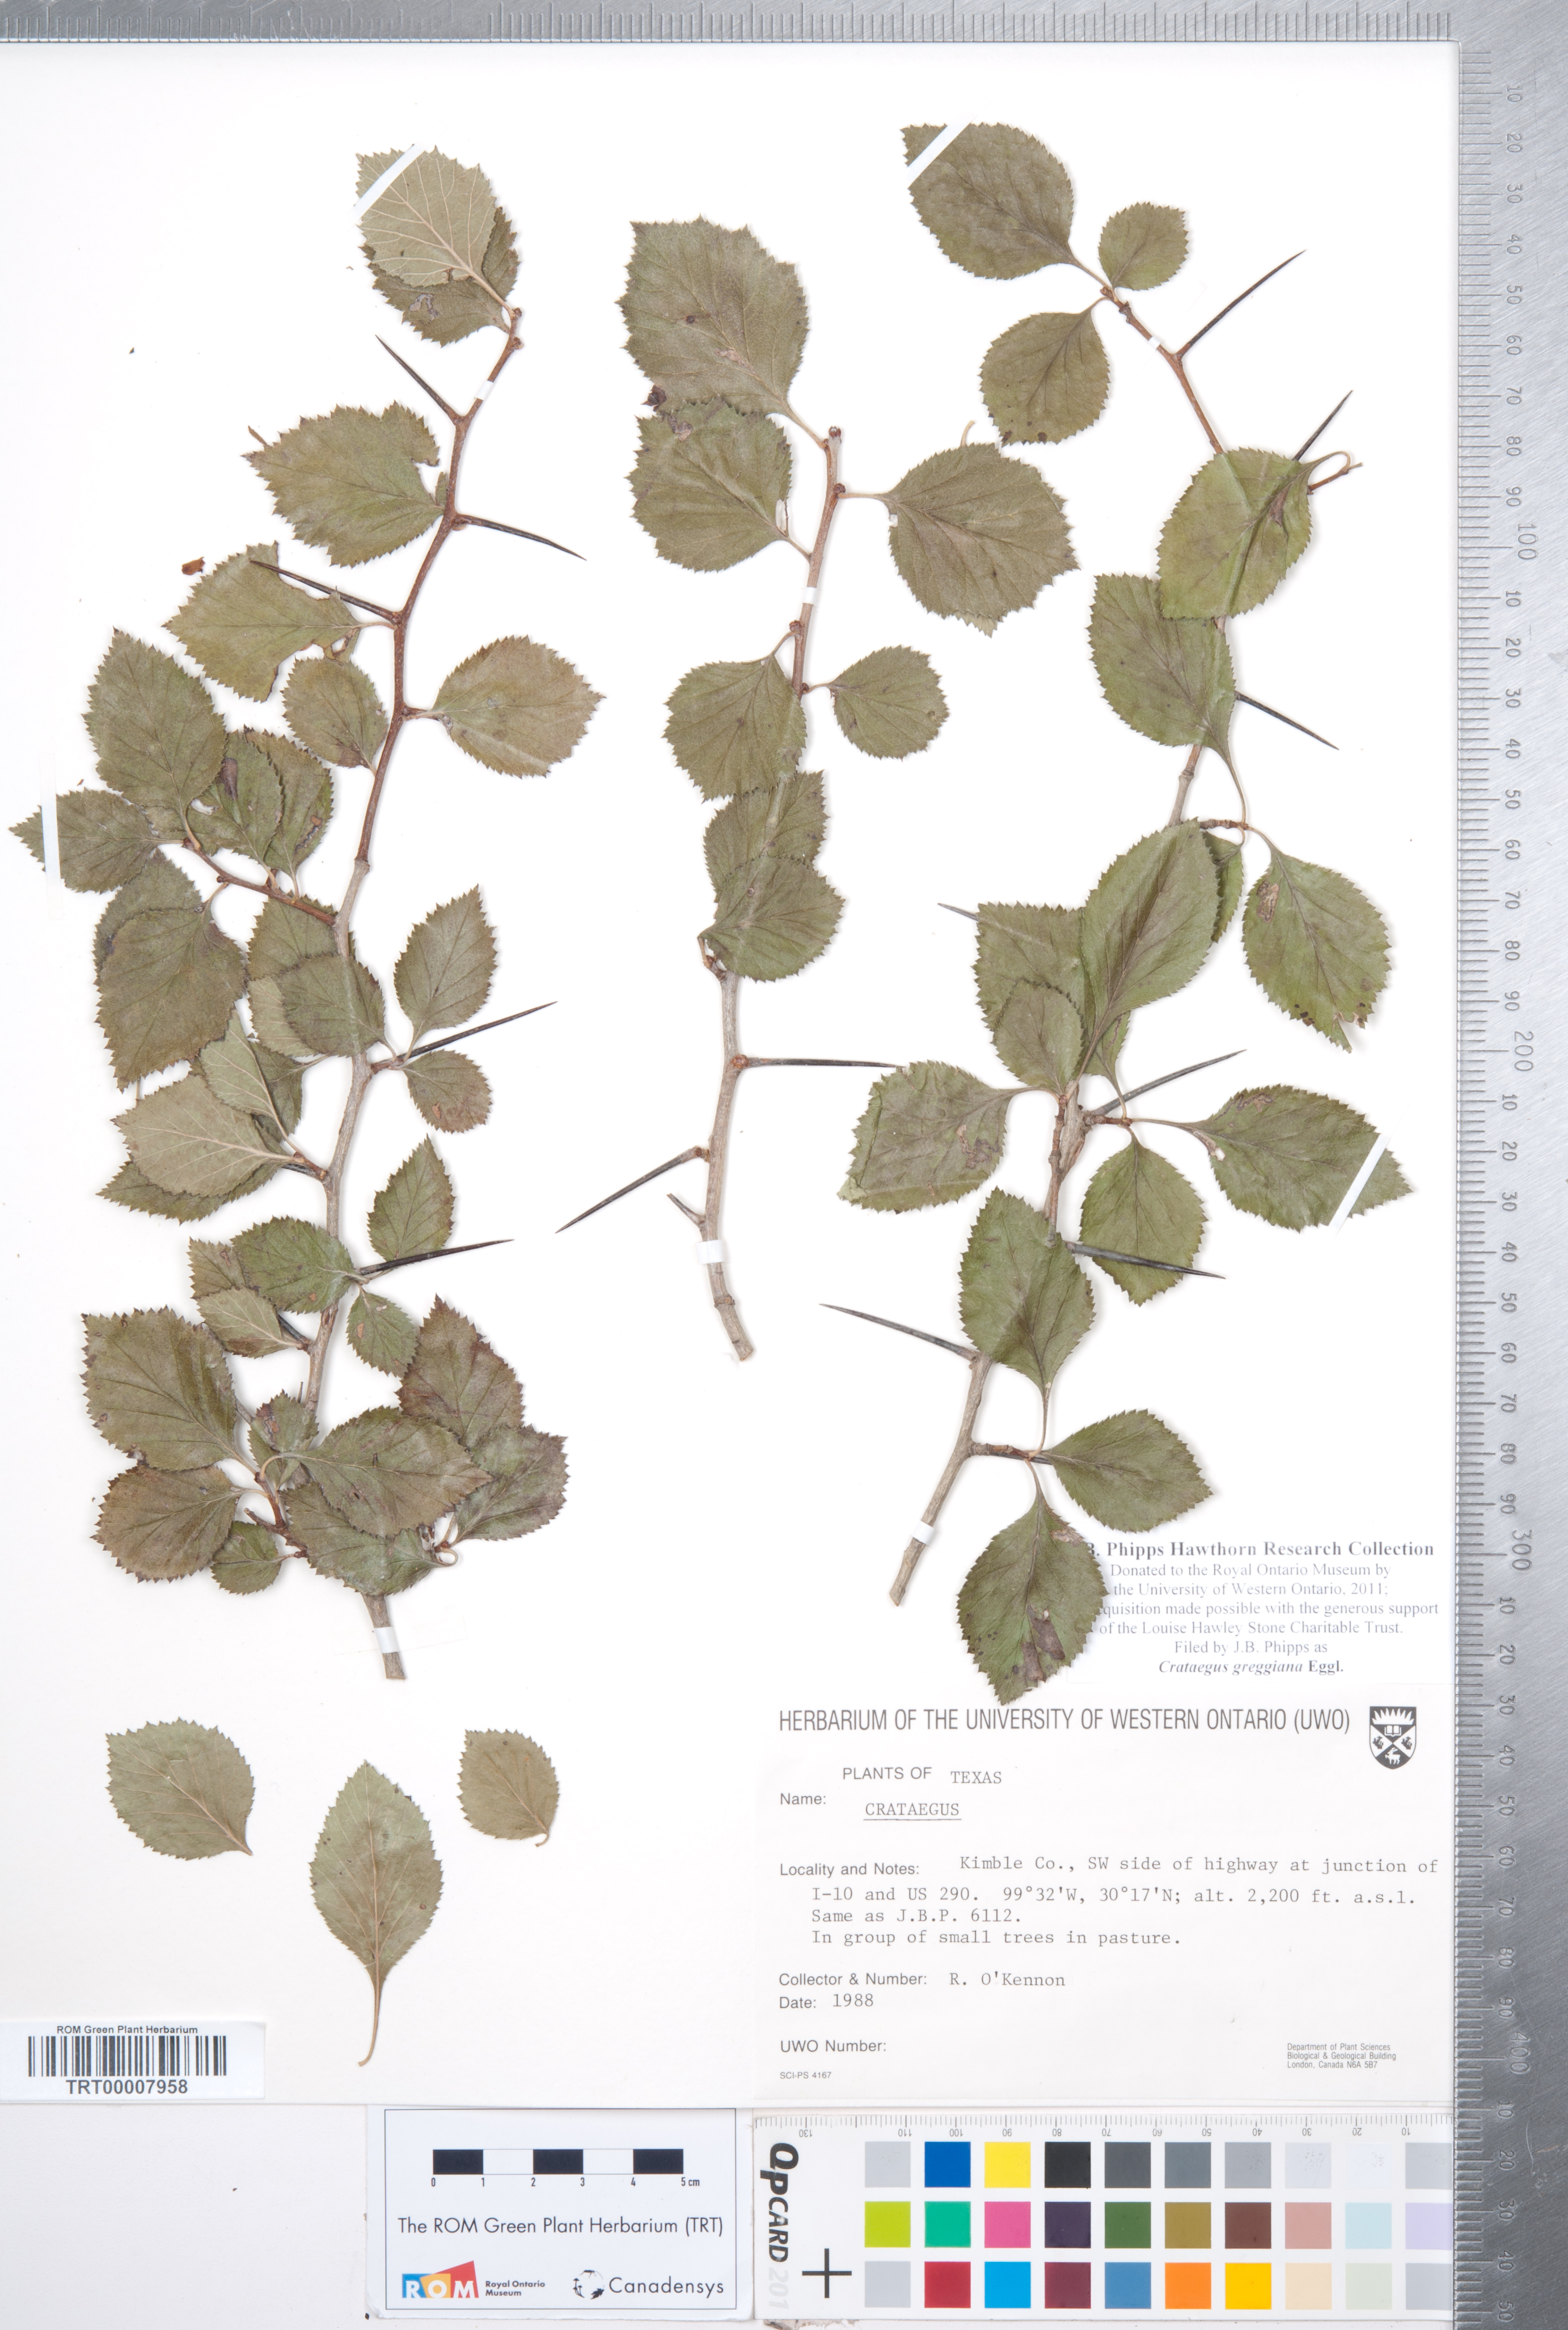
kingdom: Plantae
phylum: Tracheophyta
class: Magnoliopsida
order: Rosales
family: Rosaceae
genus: Crataegus
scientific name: Crataegus greggiana
